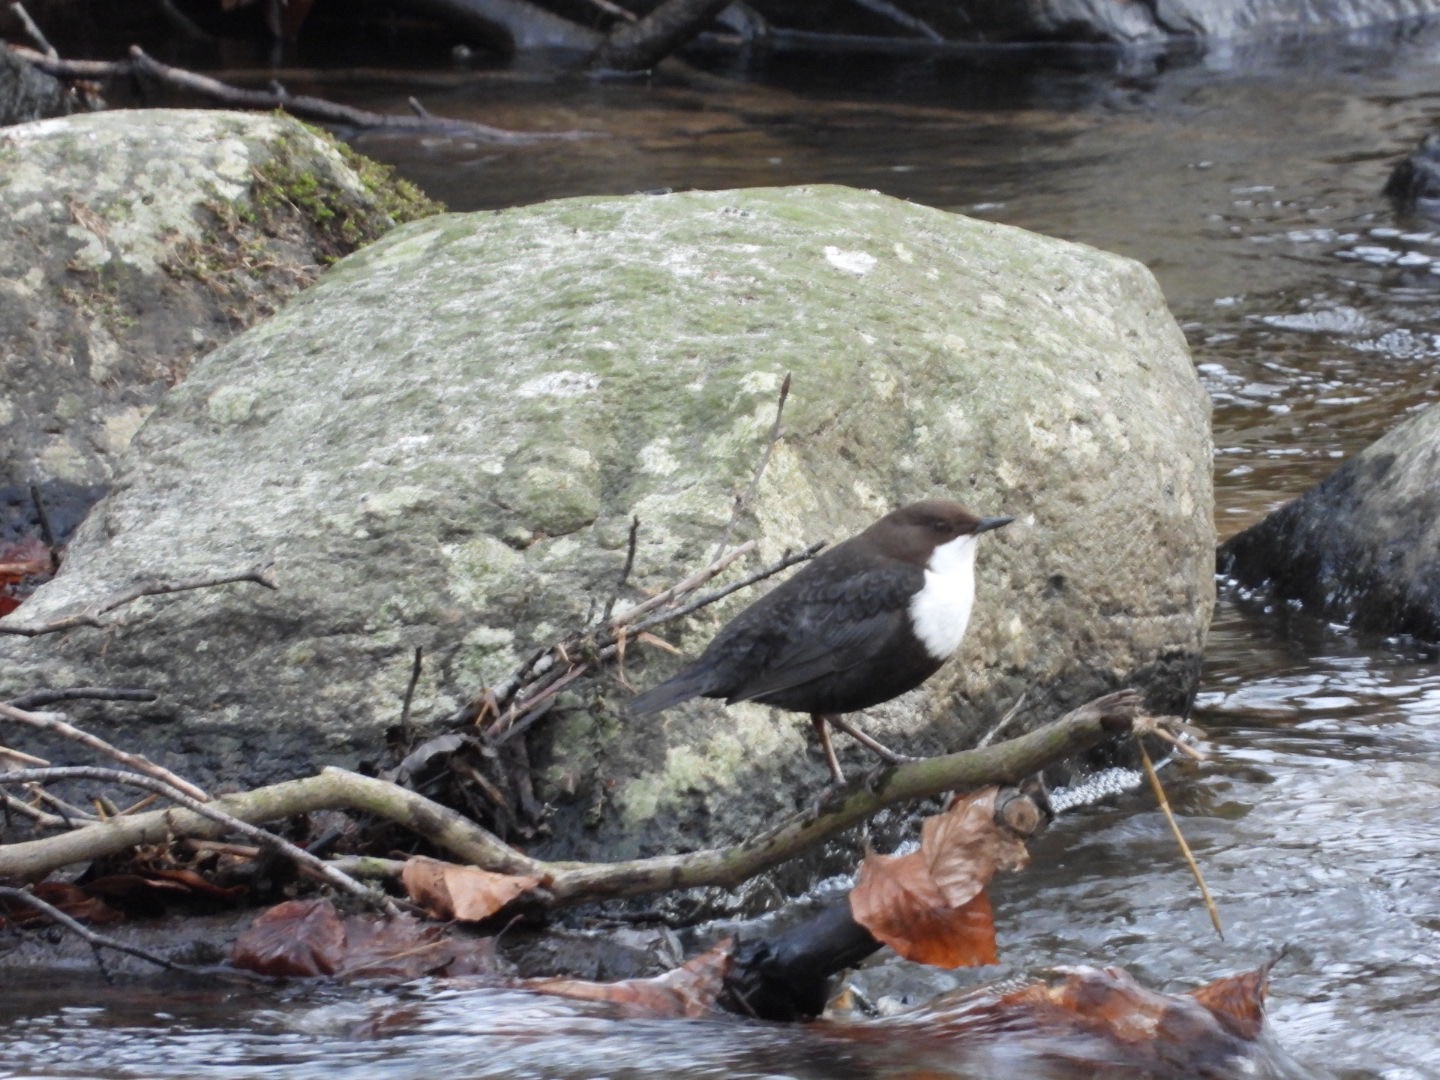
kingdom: Animalia
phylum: Chordata
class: Aves
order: Passeriformes
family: Cinclidae
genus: Cinclus
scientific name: Cinclus cinclus
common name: Vandstær
